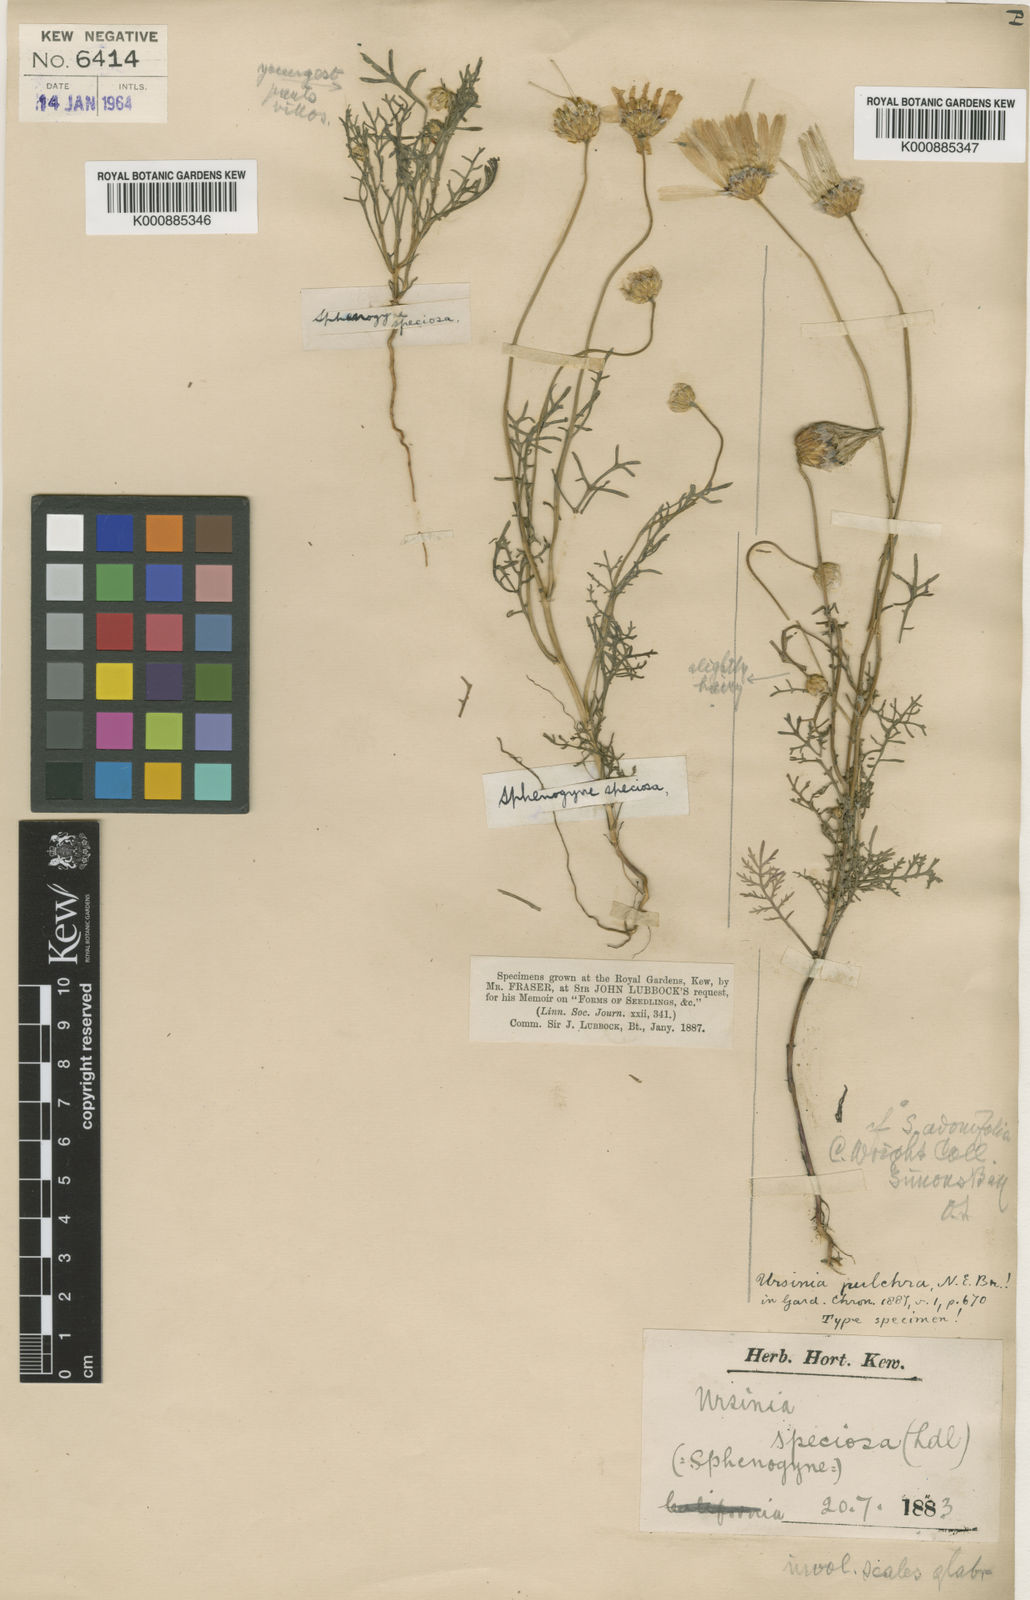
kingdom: Plantae
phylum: Tracheophyta
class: Magnoliopsida
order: Asterales
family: Asteraceae
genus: Ursinia
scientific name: Ursinia anthemoides
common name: Ursinia
